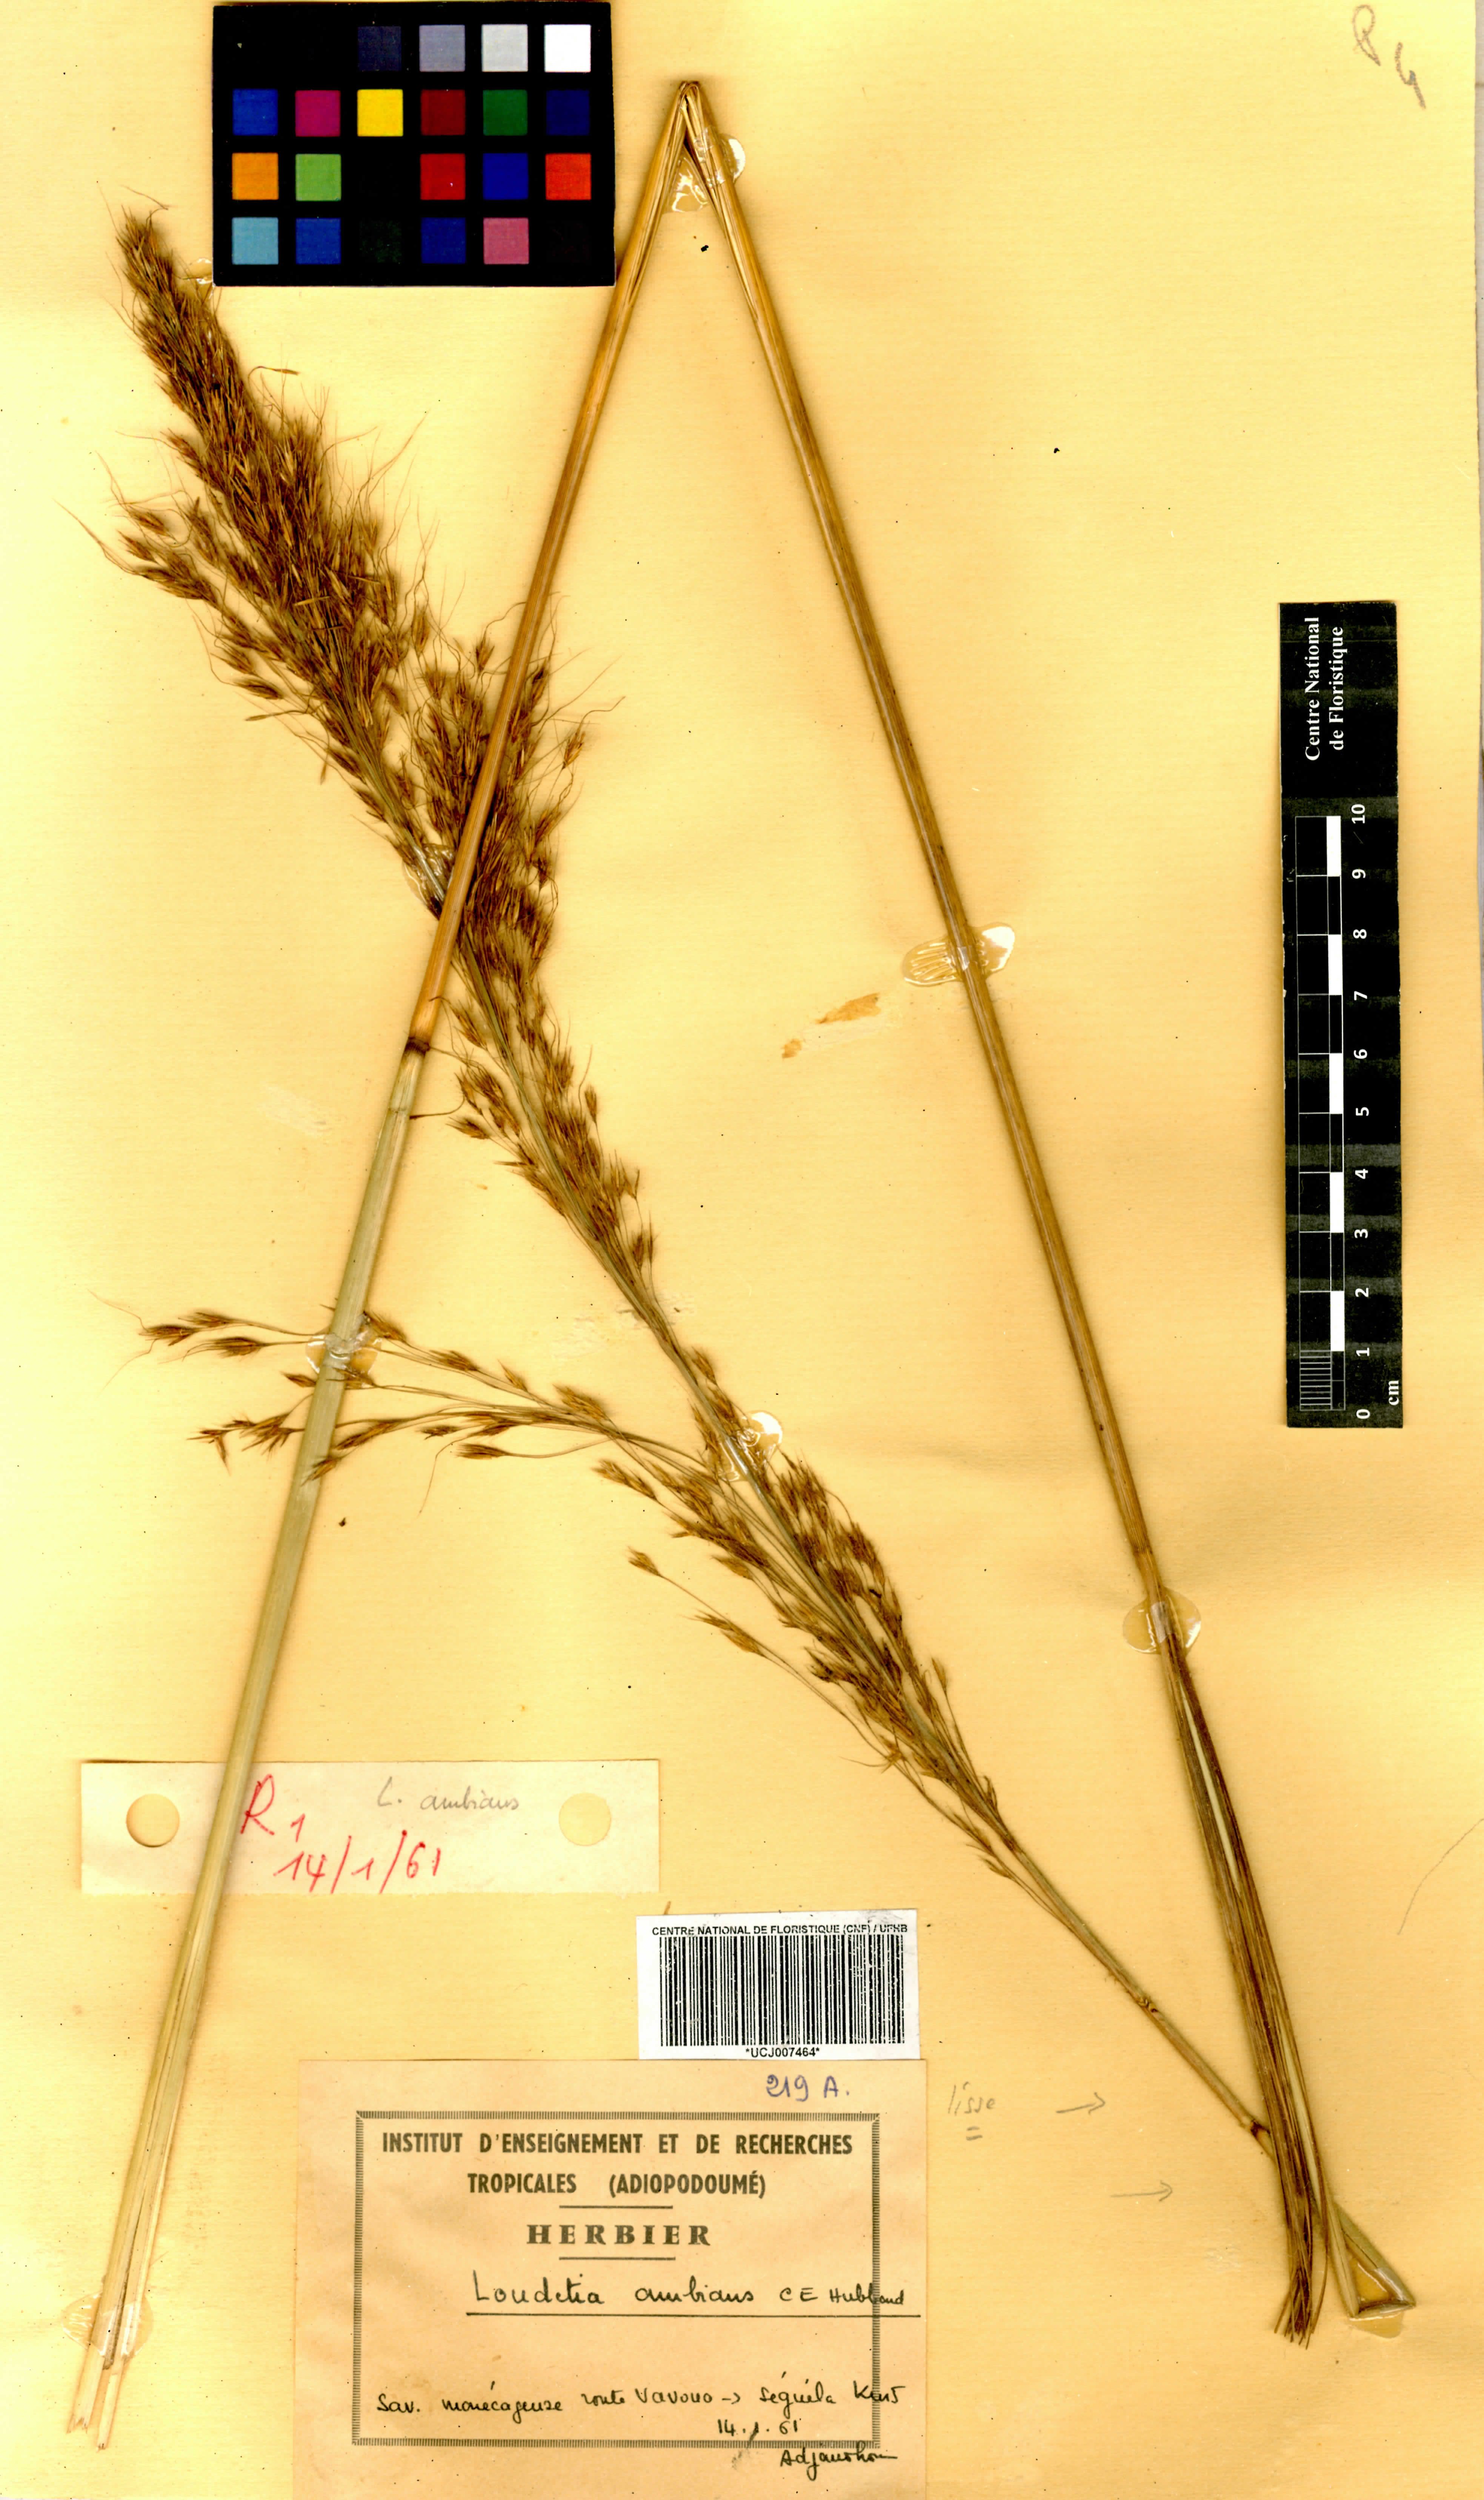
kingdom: Plantae
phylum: Tracheophyta
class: Liliopsida
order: Poales
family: Poaceae
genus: Loudetiopsis
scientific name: Loudetiopsis ambiens
